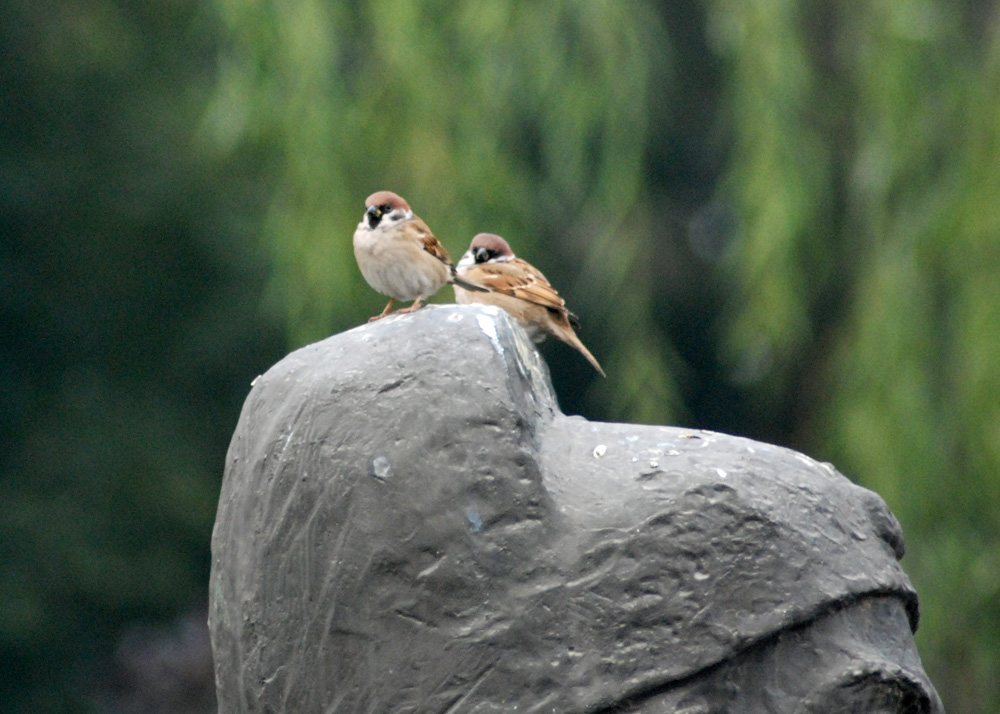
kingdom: Animalia
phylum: Chordata
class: Aves
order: Passeriformes
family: Passeridae
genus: Passer
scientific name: Passer montanus
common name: Eurasian tree sparrow
